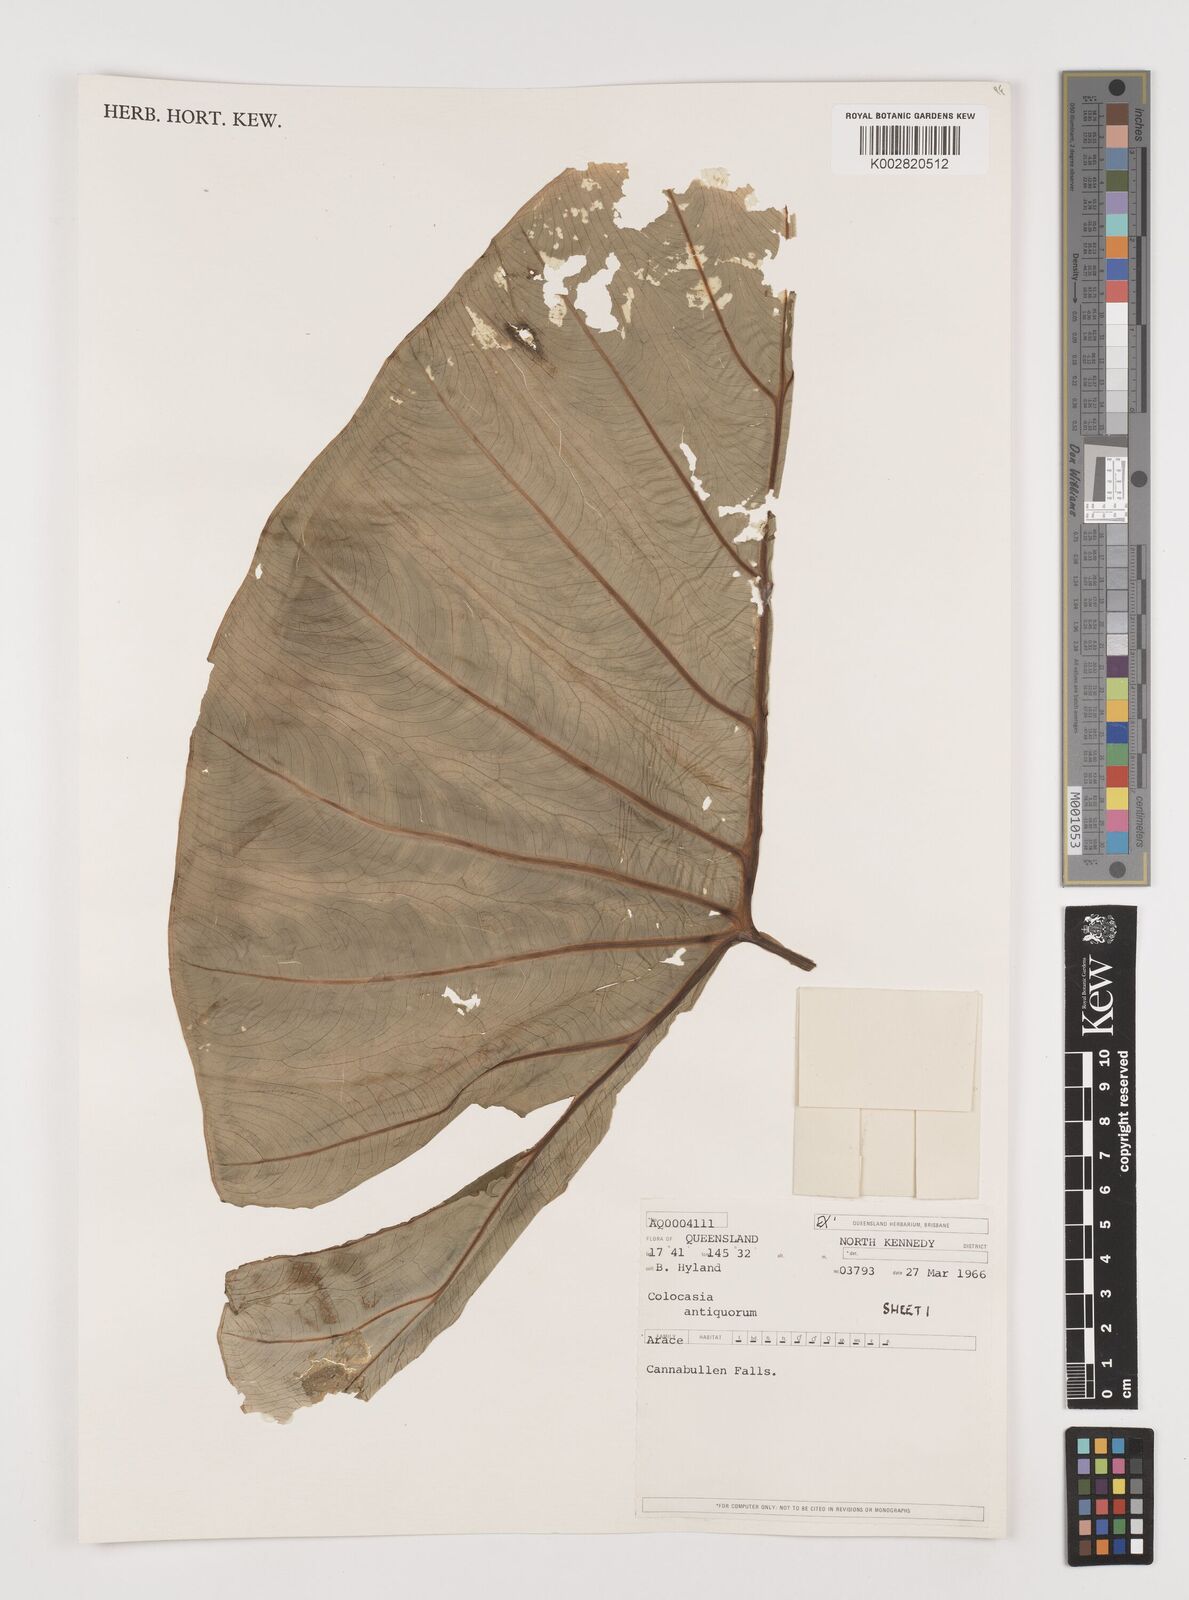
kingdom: Plantae
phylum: Tracheophyta
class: Liliopsida
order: Alismatales
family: Araceae
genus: Colocasia
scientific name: Colocasia esculenta
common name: Taro
